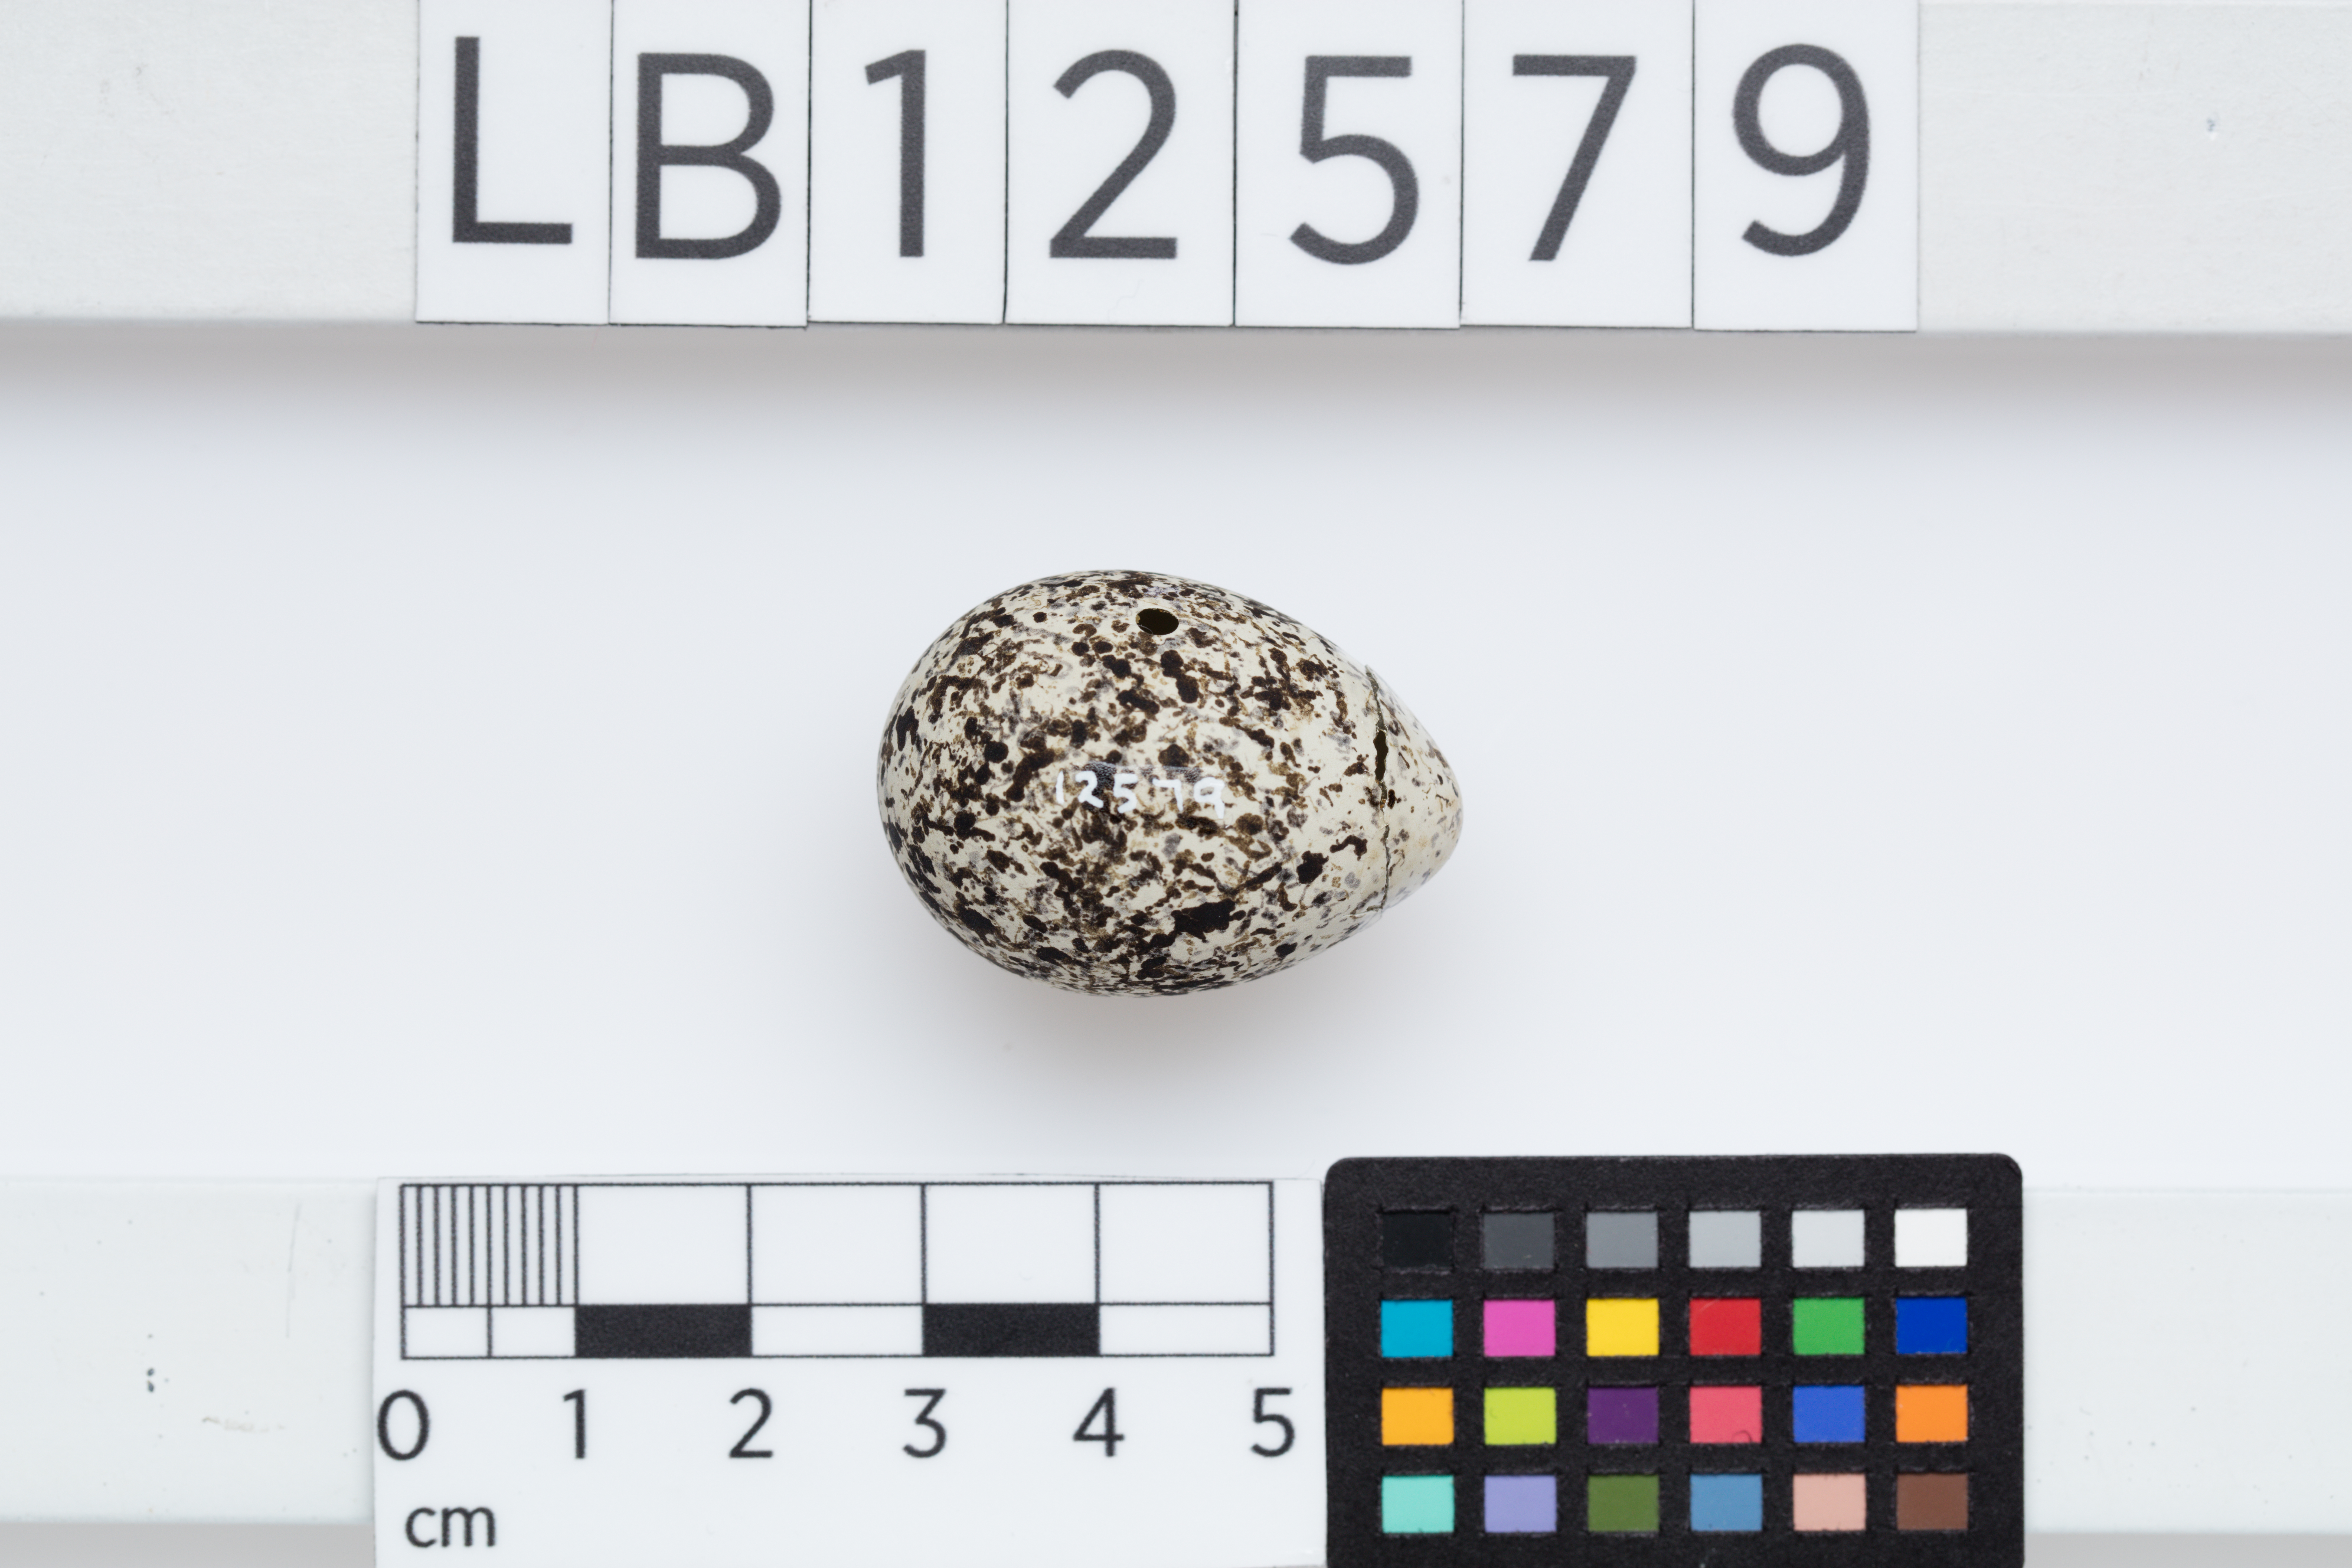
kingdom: Animalia
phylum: Chordata
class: Aves
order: Charadriiformes
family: Scolopacidae
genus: Phalaropus
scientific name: Phalaropus lobatus
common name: Red-necked phalarope
